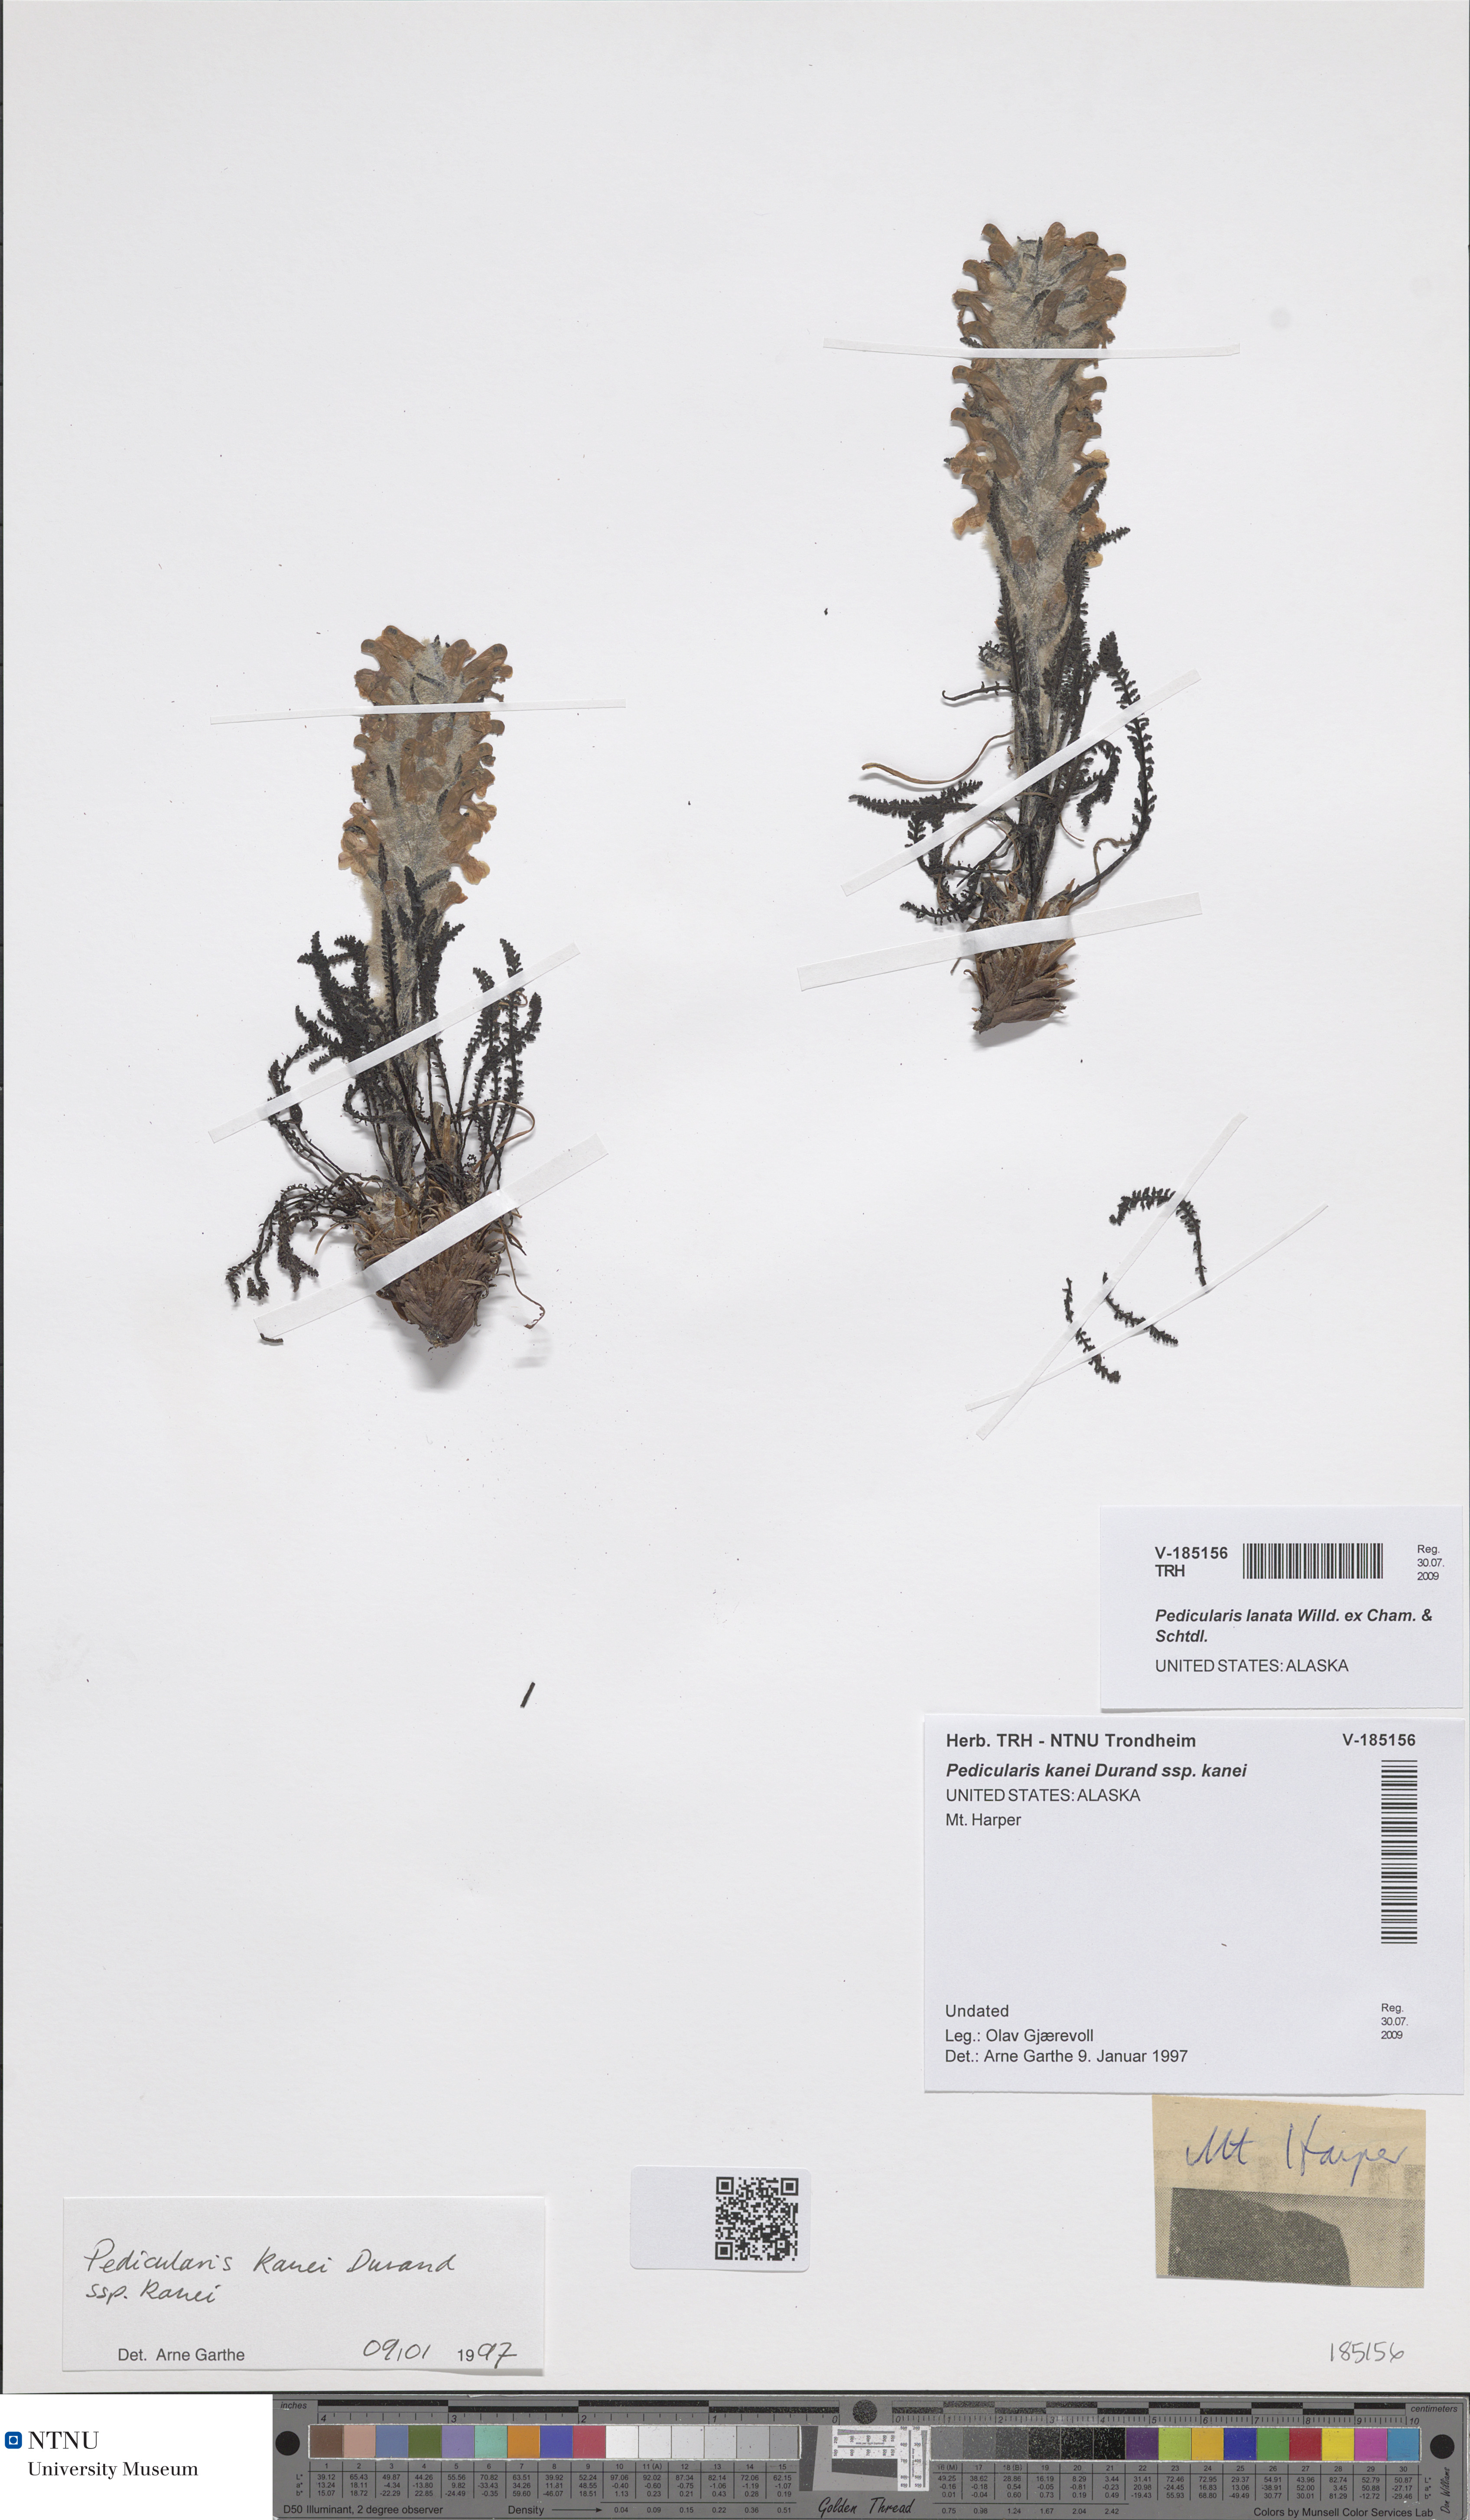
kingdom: Plantae
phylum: Tracheophyta
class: Magnoliopsida
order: Lamiales
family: Orobanchaceae
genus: Pedicularis
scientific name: Pedicularis lanata
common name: Woolly lousewort
